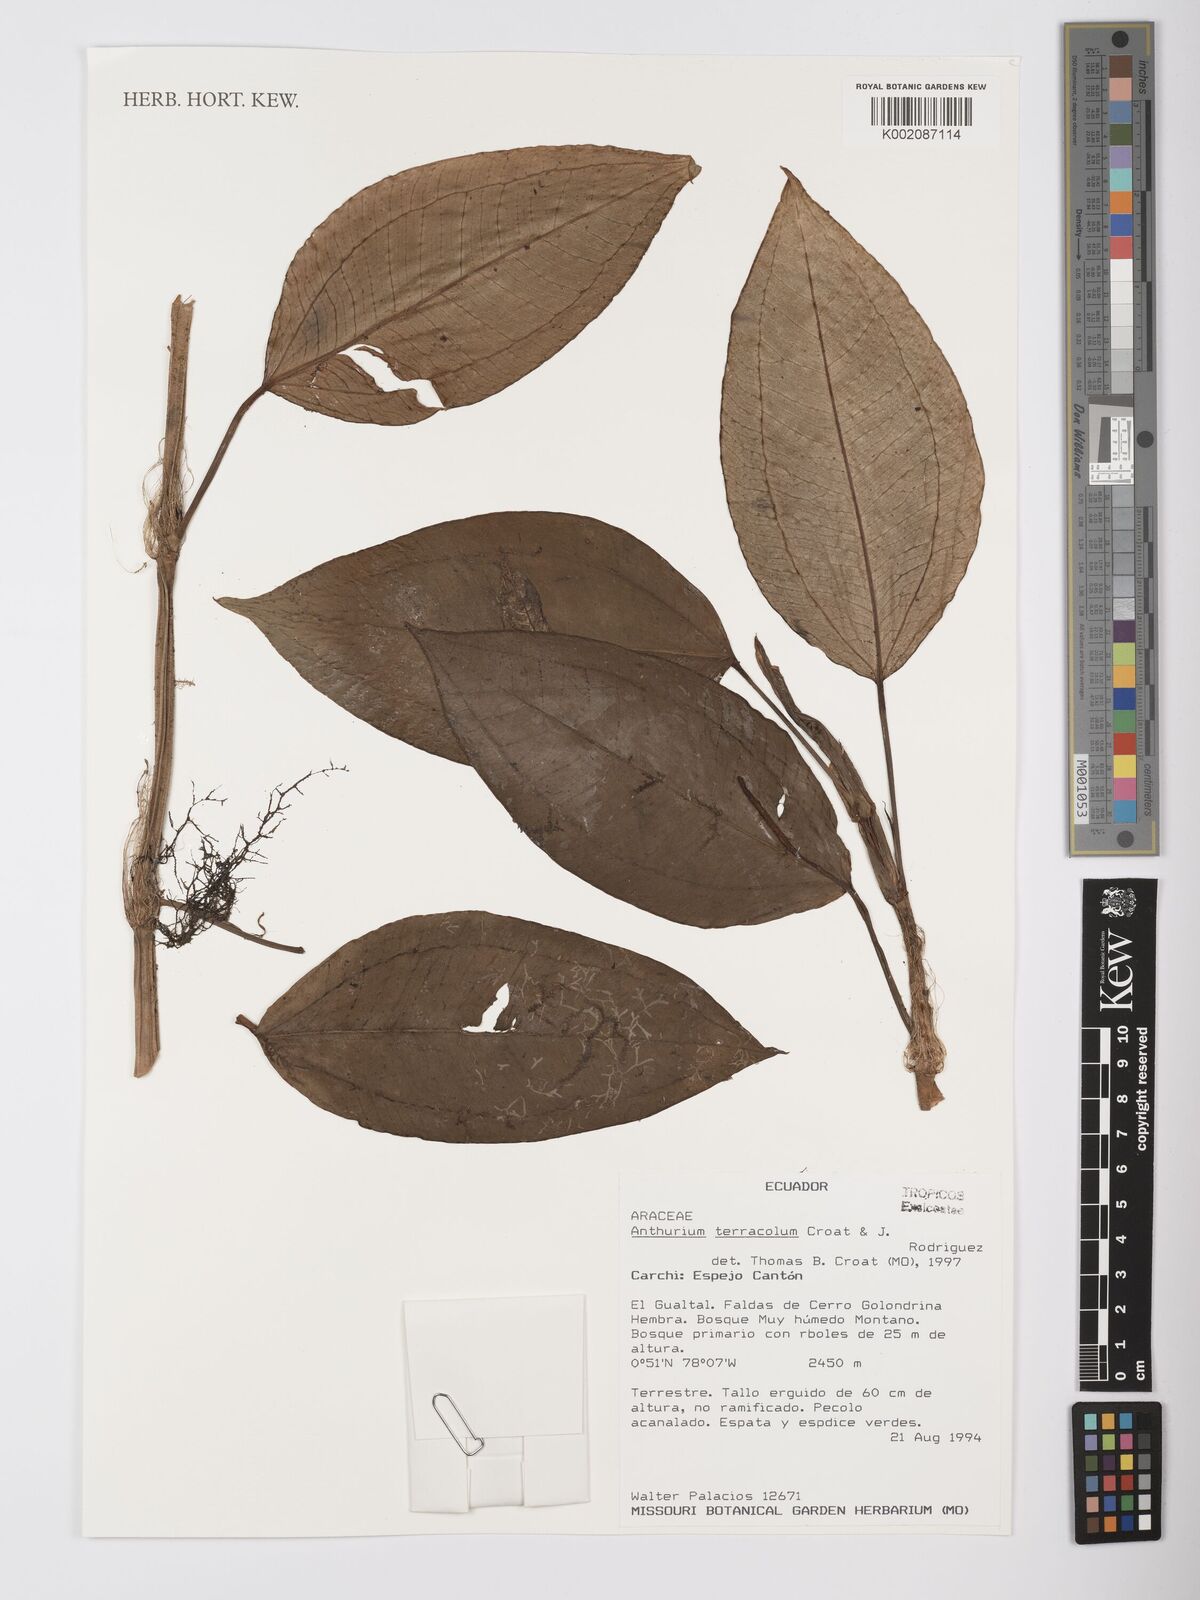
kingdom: Plantae
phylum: Tracheophyta
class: Liliopsida
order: Alismatales
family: Araceae
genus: Anthurium
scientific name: Anthurium terracola
